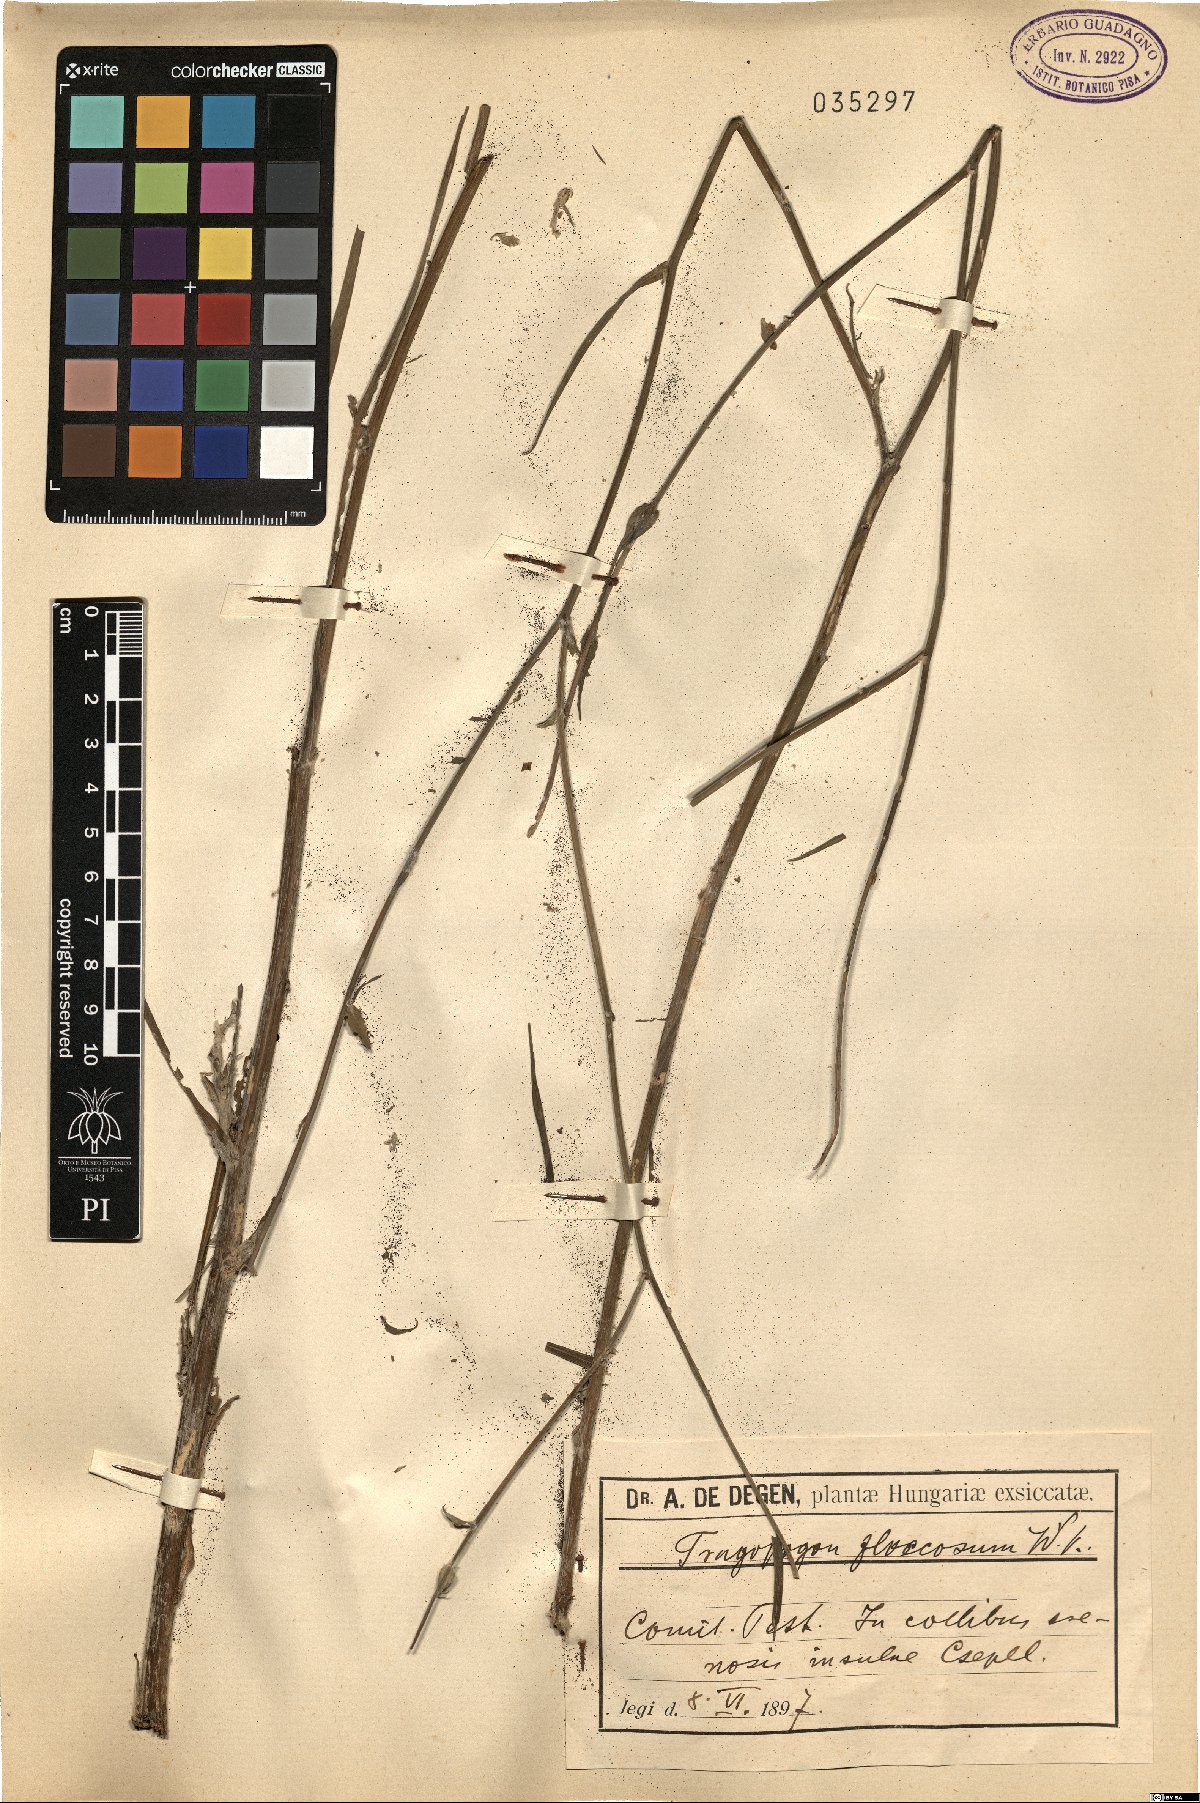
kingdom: Plantae
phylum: Tracheophyta
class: Magnoliopsida
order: Asterales
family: Asteraceae
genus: Tragopogon
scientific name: Tragopogon floccosus
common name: Woolly goatsbeard
